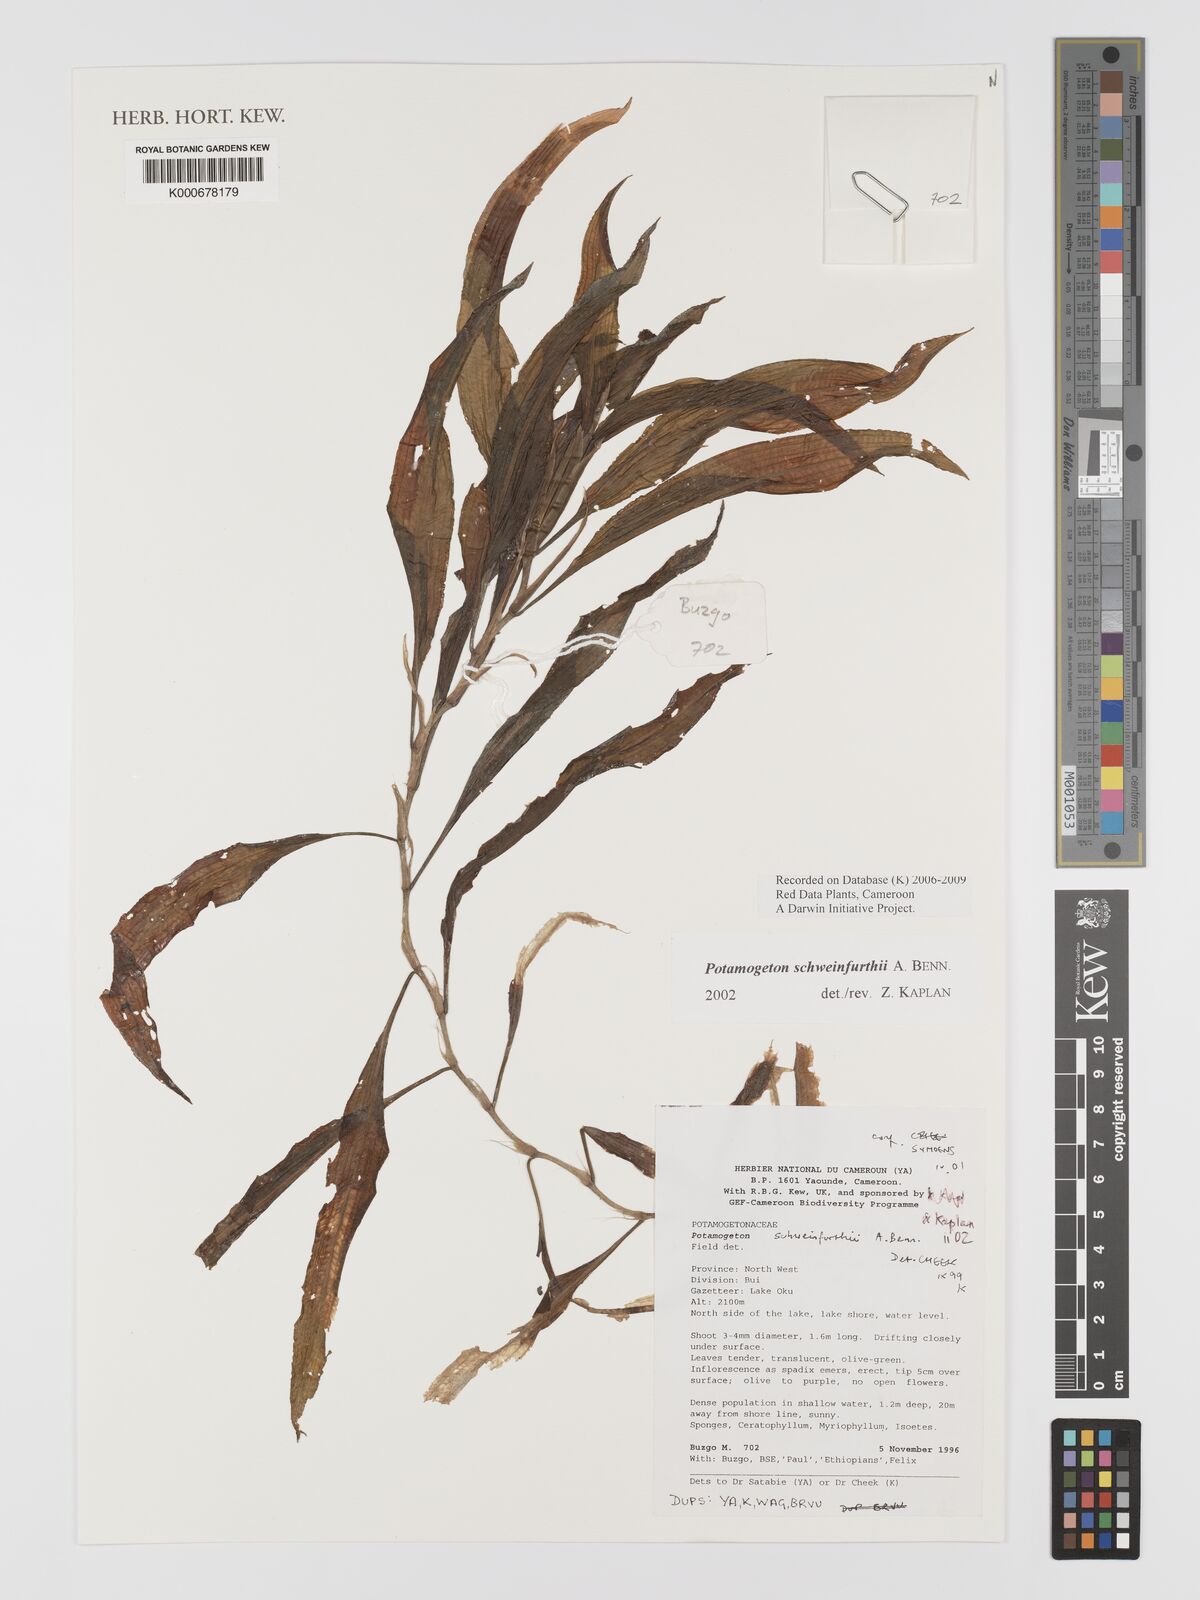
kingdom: Plantae
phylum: Tracheophyta
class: Liliopsida
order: Alismatales
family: Potamogetonaceae
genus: Potamogeton
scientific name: Potamogeton schweinfurthii
